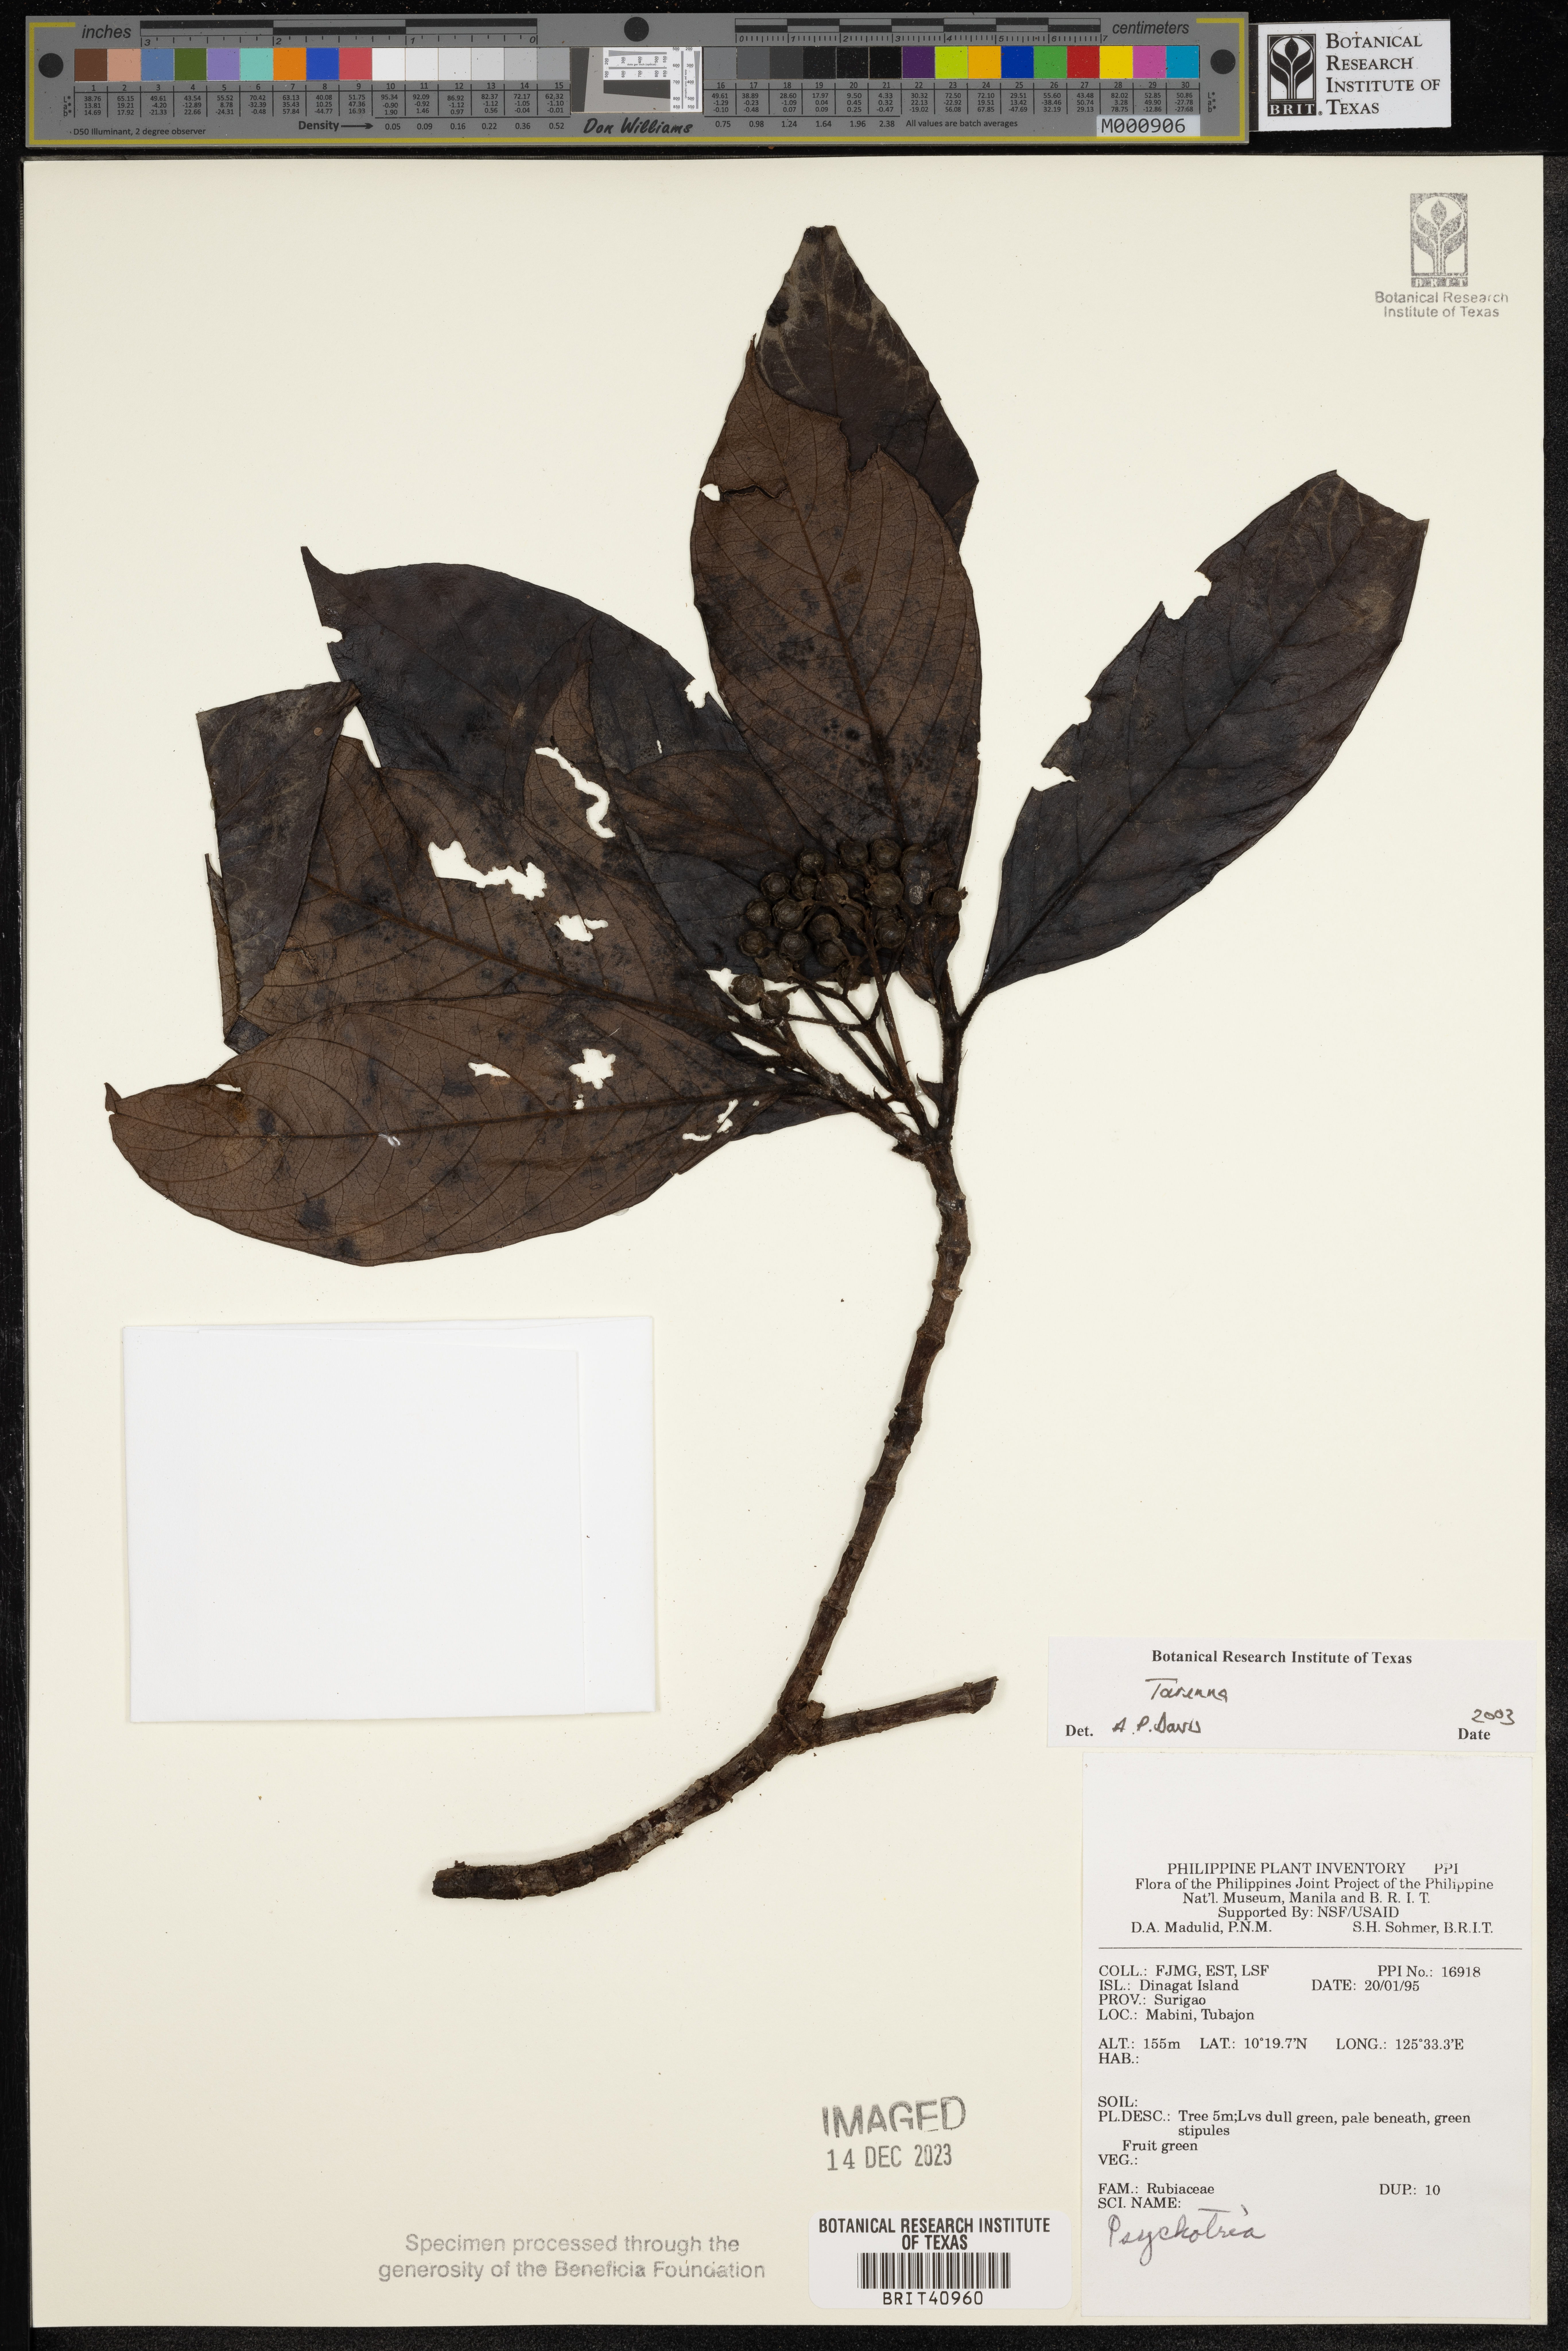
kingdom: Plantae
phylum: Tracheophyta
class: Magnoliopsida
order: Gentianales
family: Rubiaceae
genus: Tarenna
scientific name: Tarenna
